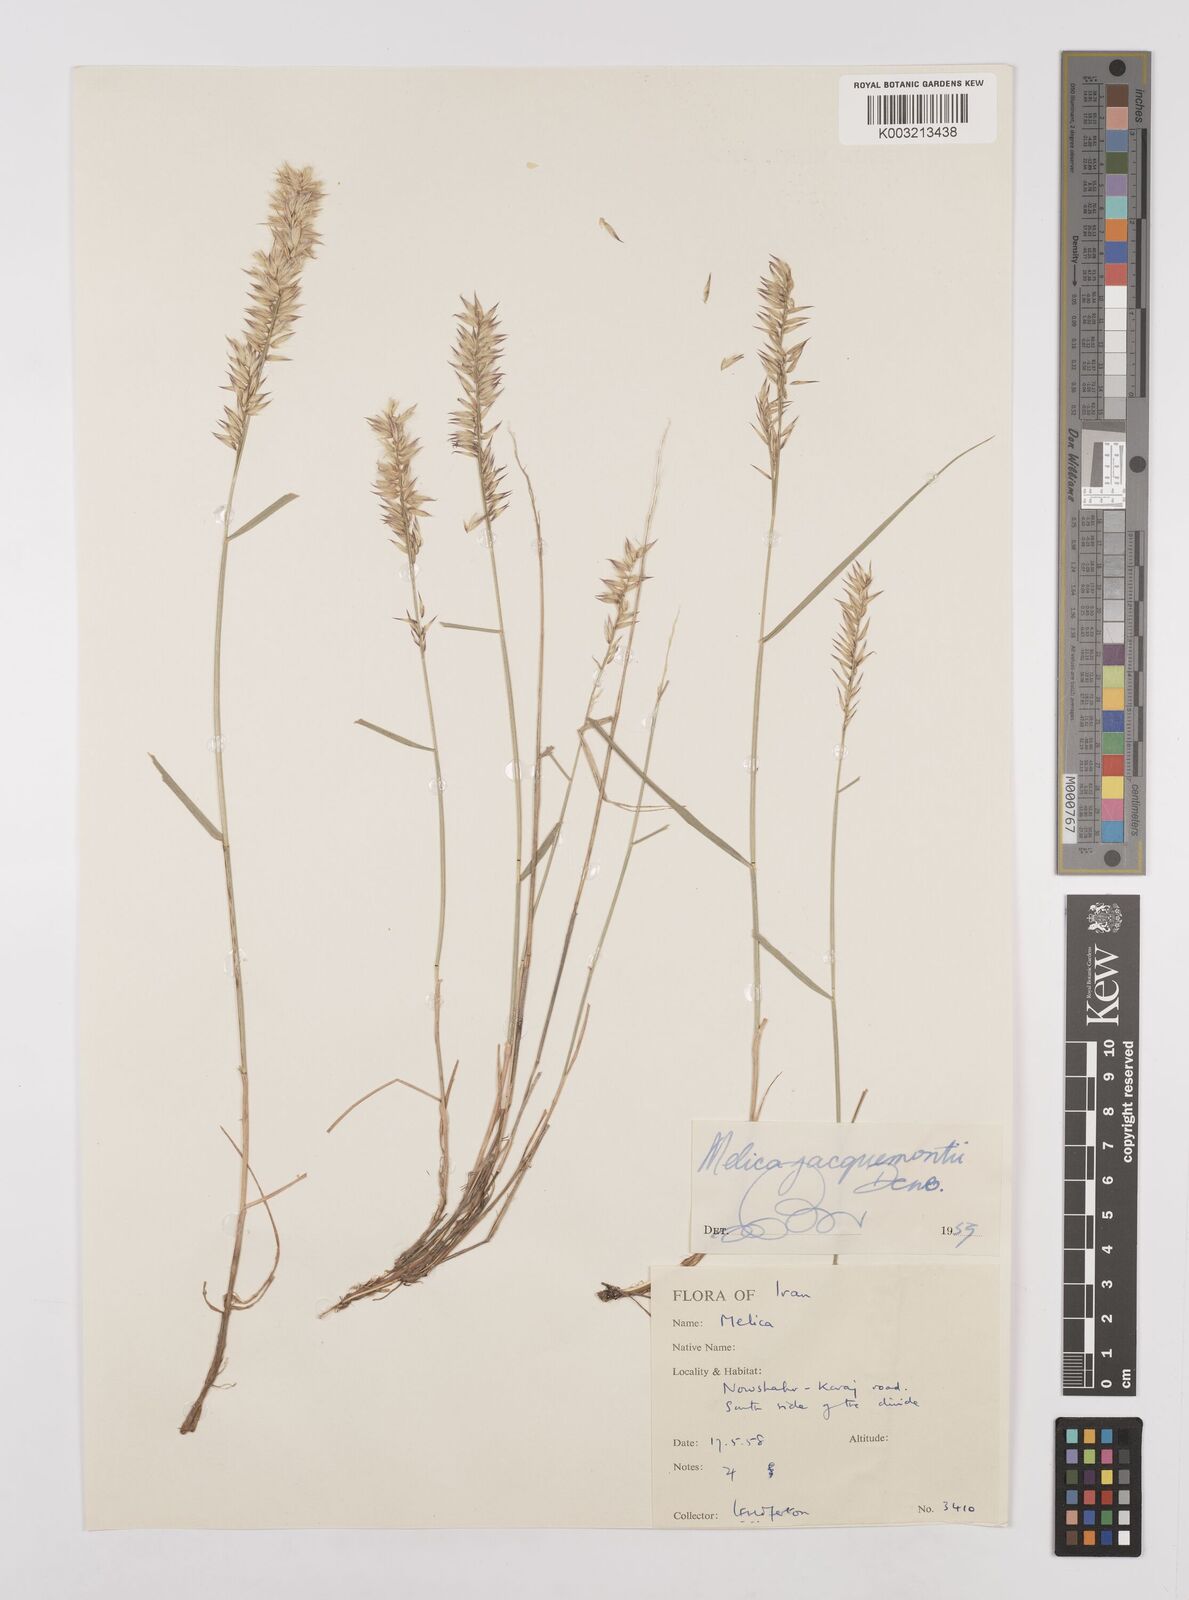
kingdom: Plantae
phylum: Tracheophyta
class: Liliopsida
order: Poales
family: Poaceae
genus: Melica
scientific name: Melica persica
